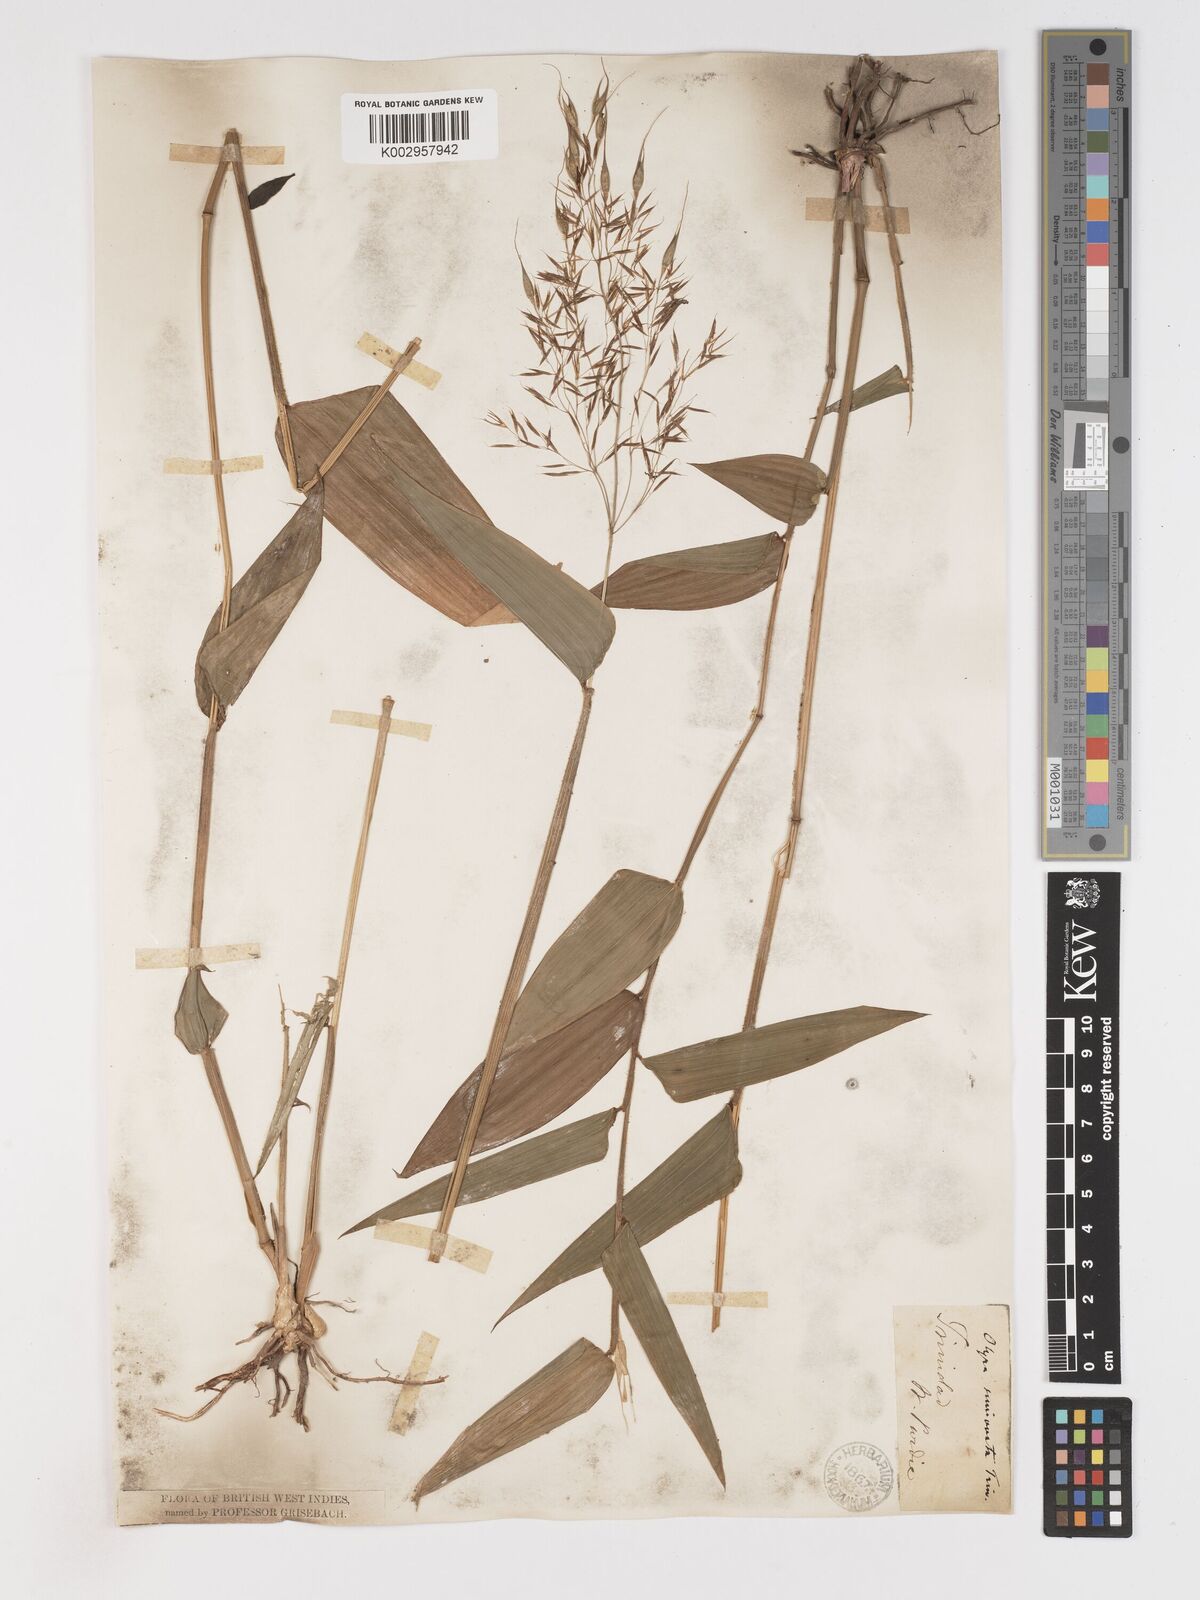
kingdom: Plantae
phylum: Tracheophyta
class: Liliopsida
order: Poales
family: Poaceae
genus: Olyra
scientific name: Olyra ciliatifolia
